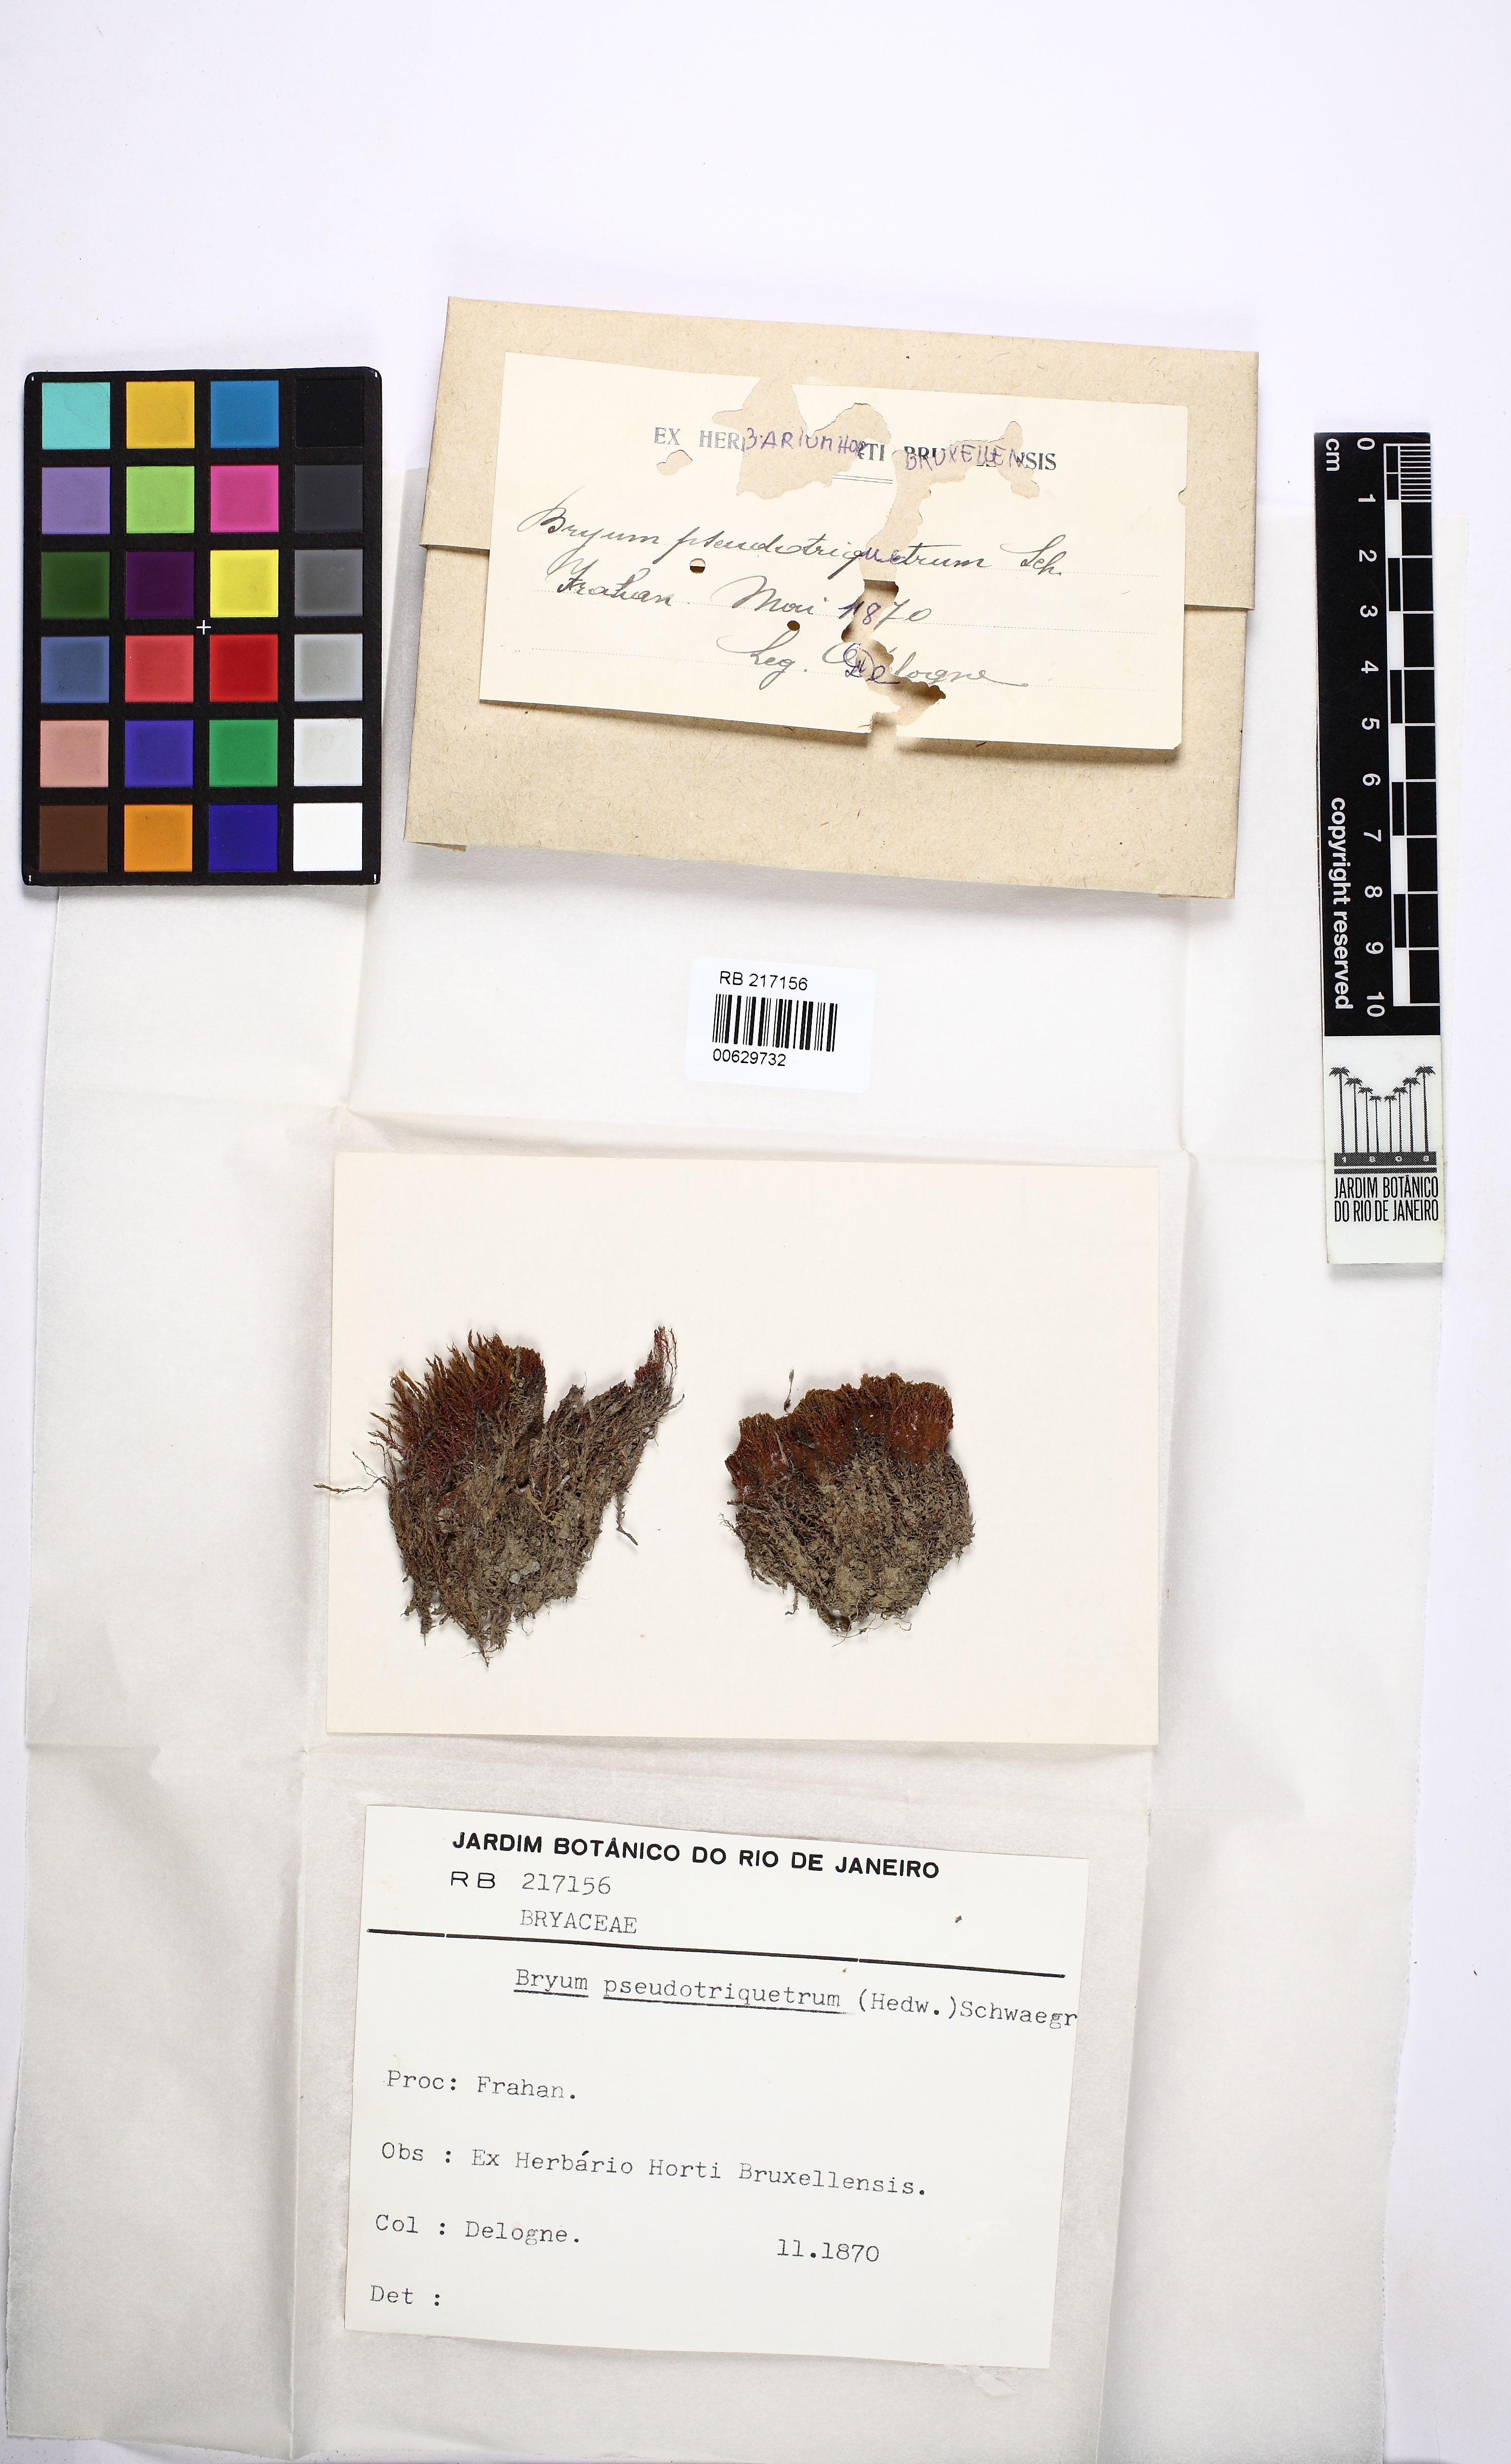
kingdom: Plantae
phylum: Bryophyta
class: Bryopsida
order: Bryales
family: Bryaceae
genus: Ptychostomum
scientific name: Ptychostomum pseudotriquetrum
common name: Long-leaved thread moss
